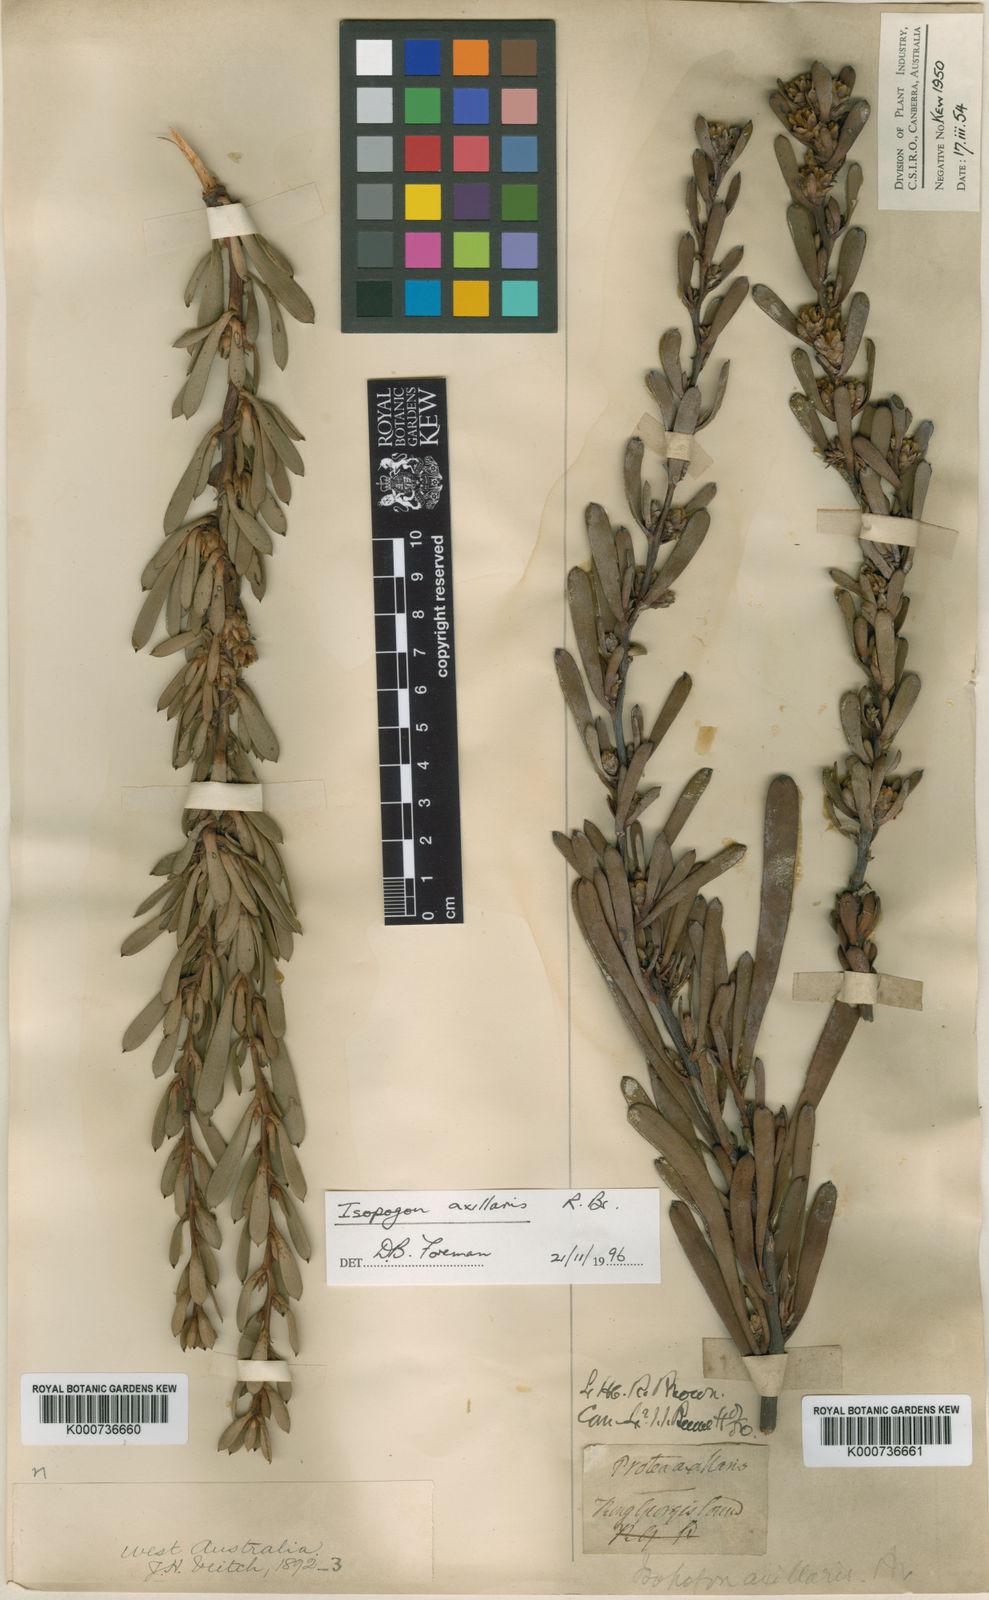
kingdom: Plantae
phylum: Tracheophyta
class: Magnoliopsida
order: Proteales
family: Proteaceae
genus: Isopogon
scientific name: Isopogon axillaris
